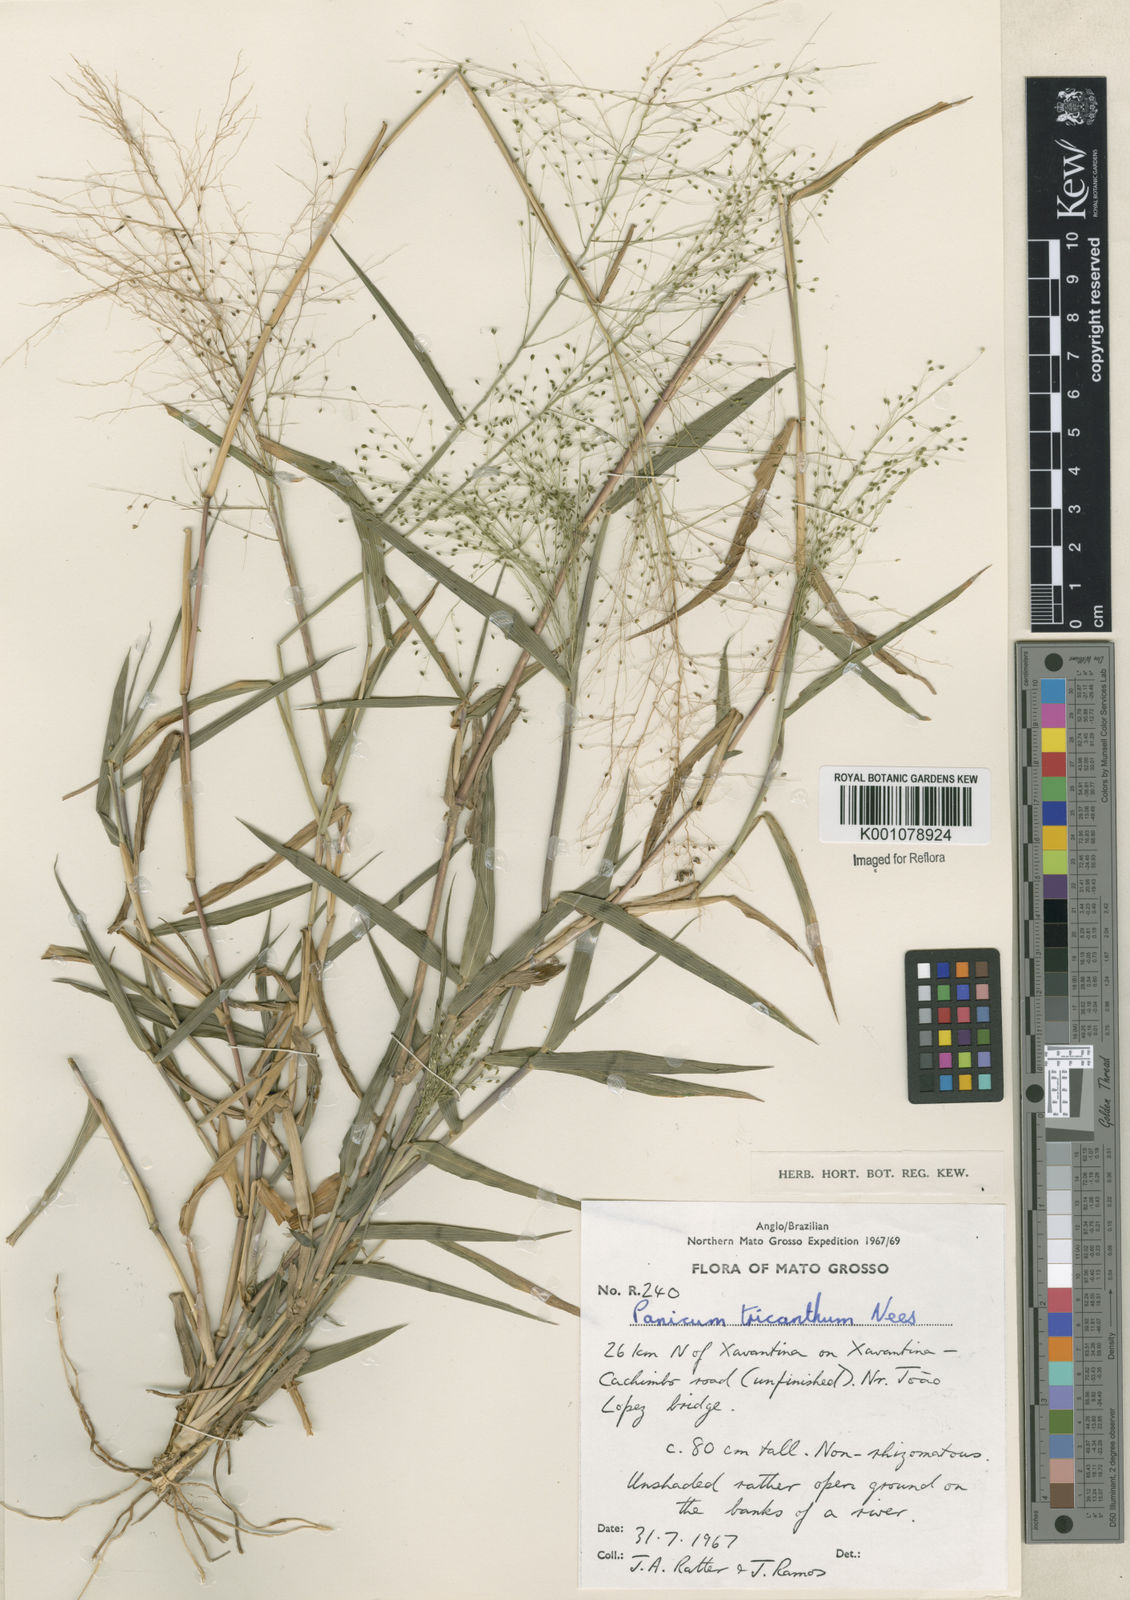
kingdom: Plantae
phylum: Tracheophyta
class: Liliopsida
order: Poales
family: Poaceae
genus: Panicum
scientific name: Panicum
